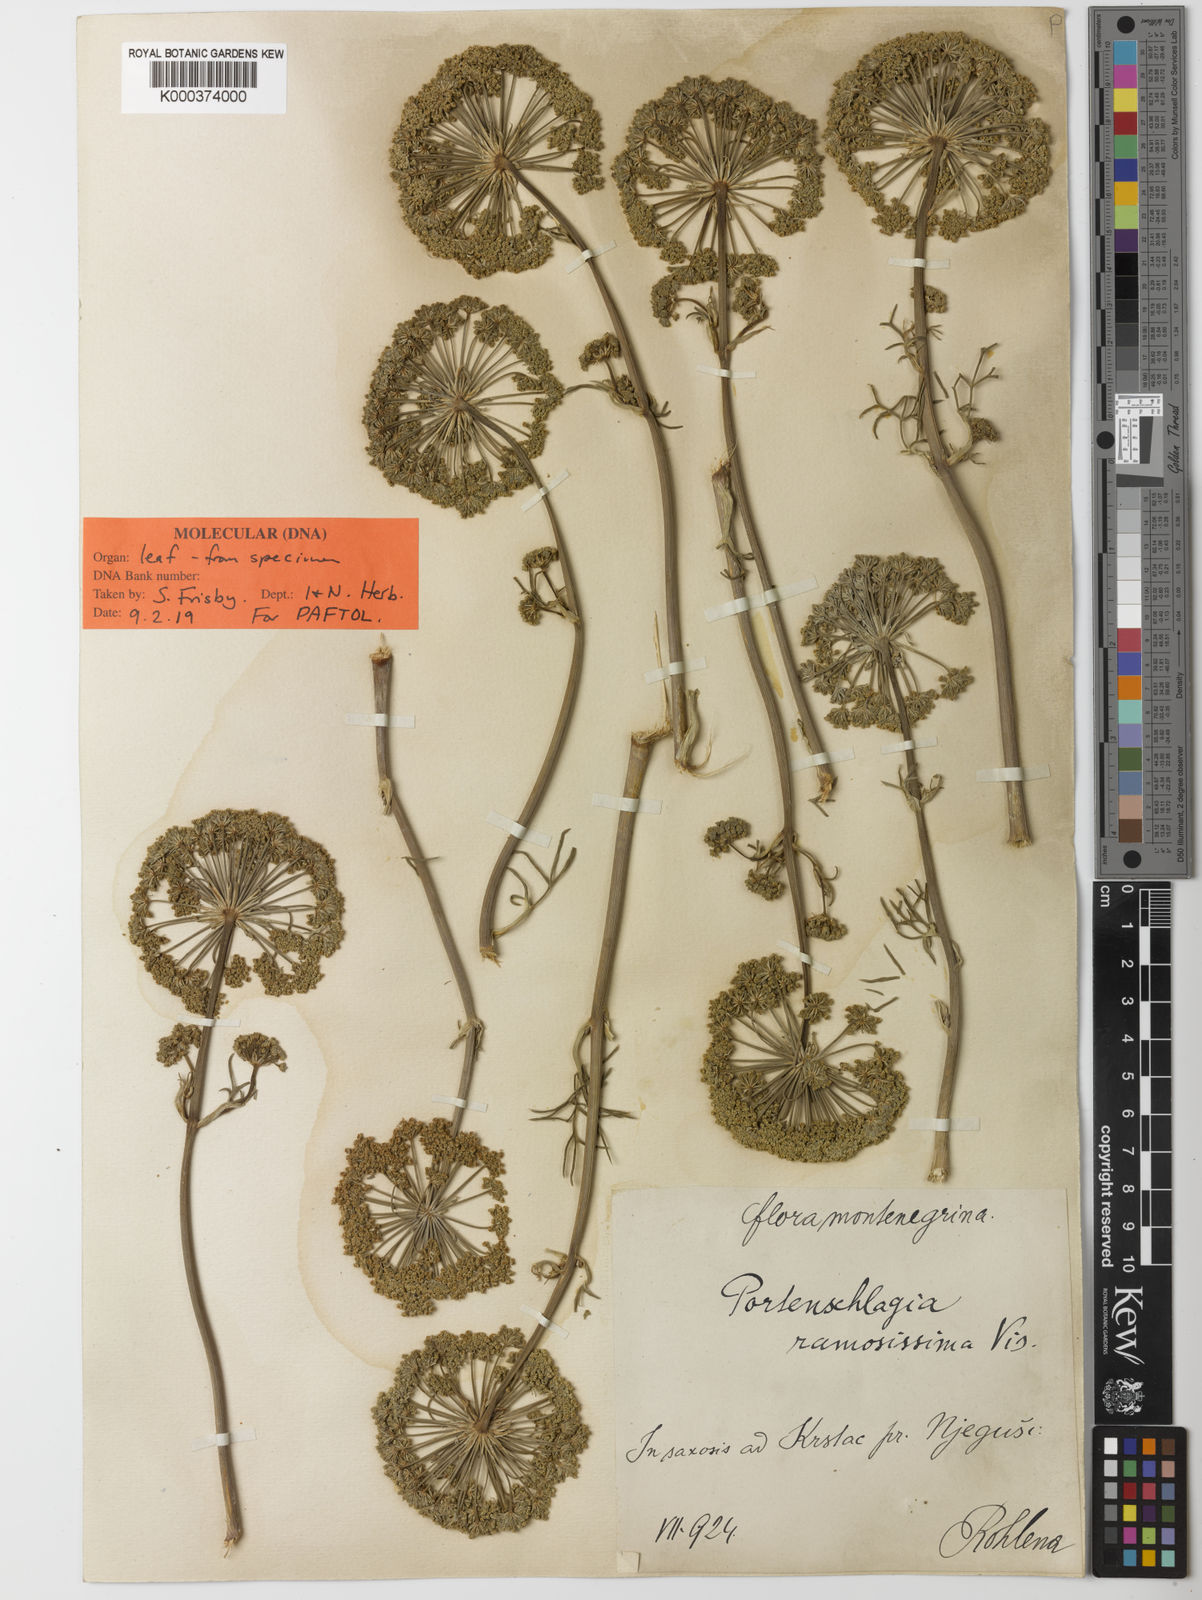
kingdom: Plantae
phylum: Tracheophyta
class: Magnoliopsida
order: Apiales
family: Apiaceae
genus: Athamanta
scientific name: Athamanta ramosissima
